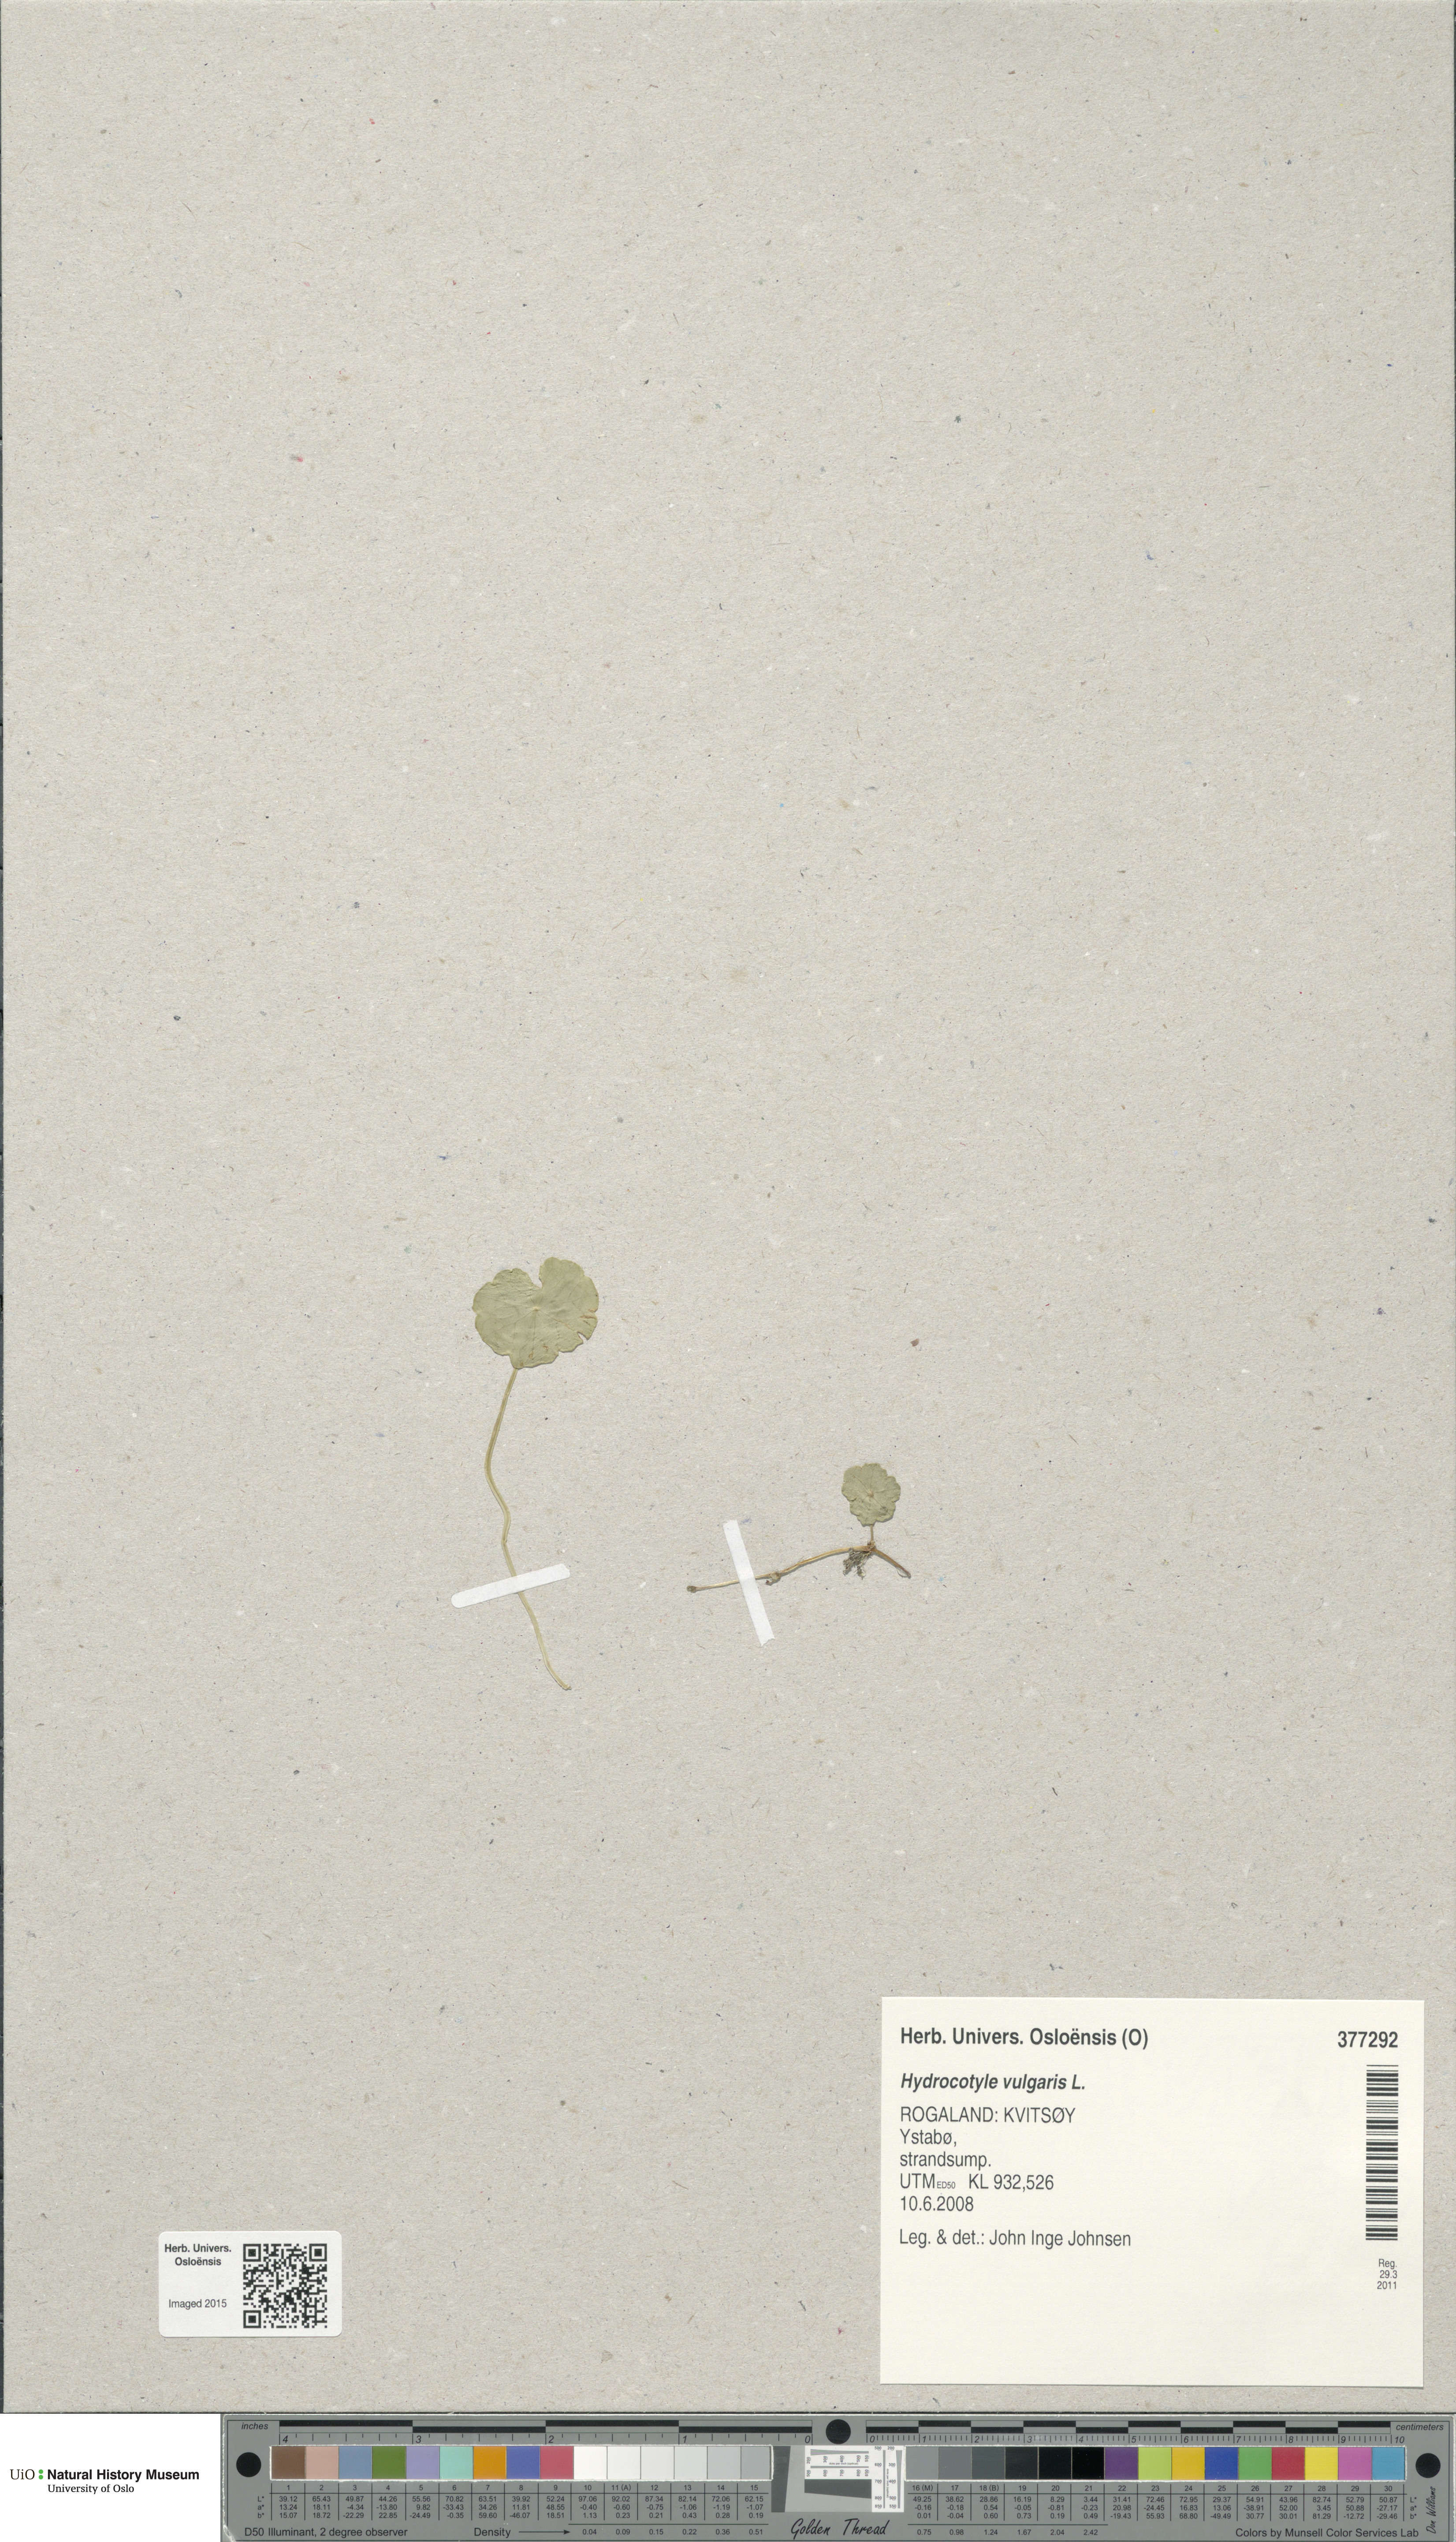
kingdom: Plantae
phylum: Tracheophyta
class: Magnoliopsida
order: Apiales
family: Araliaceae
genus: Hydrocotyle
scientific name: Hydrocotyle vulgaris
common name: Marsh pennywort
